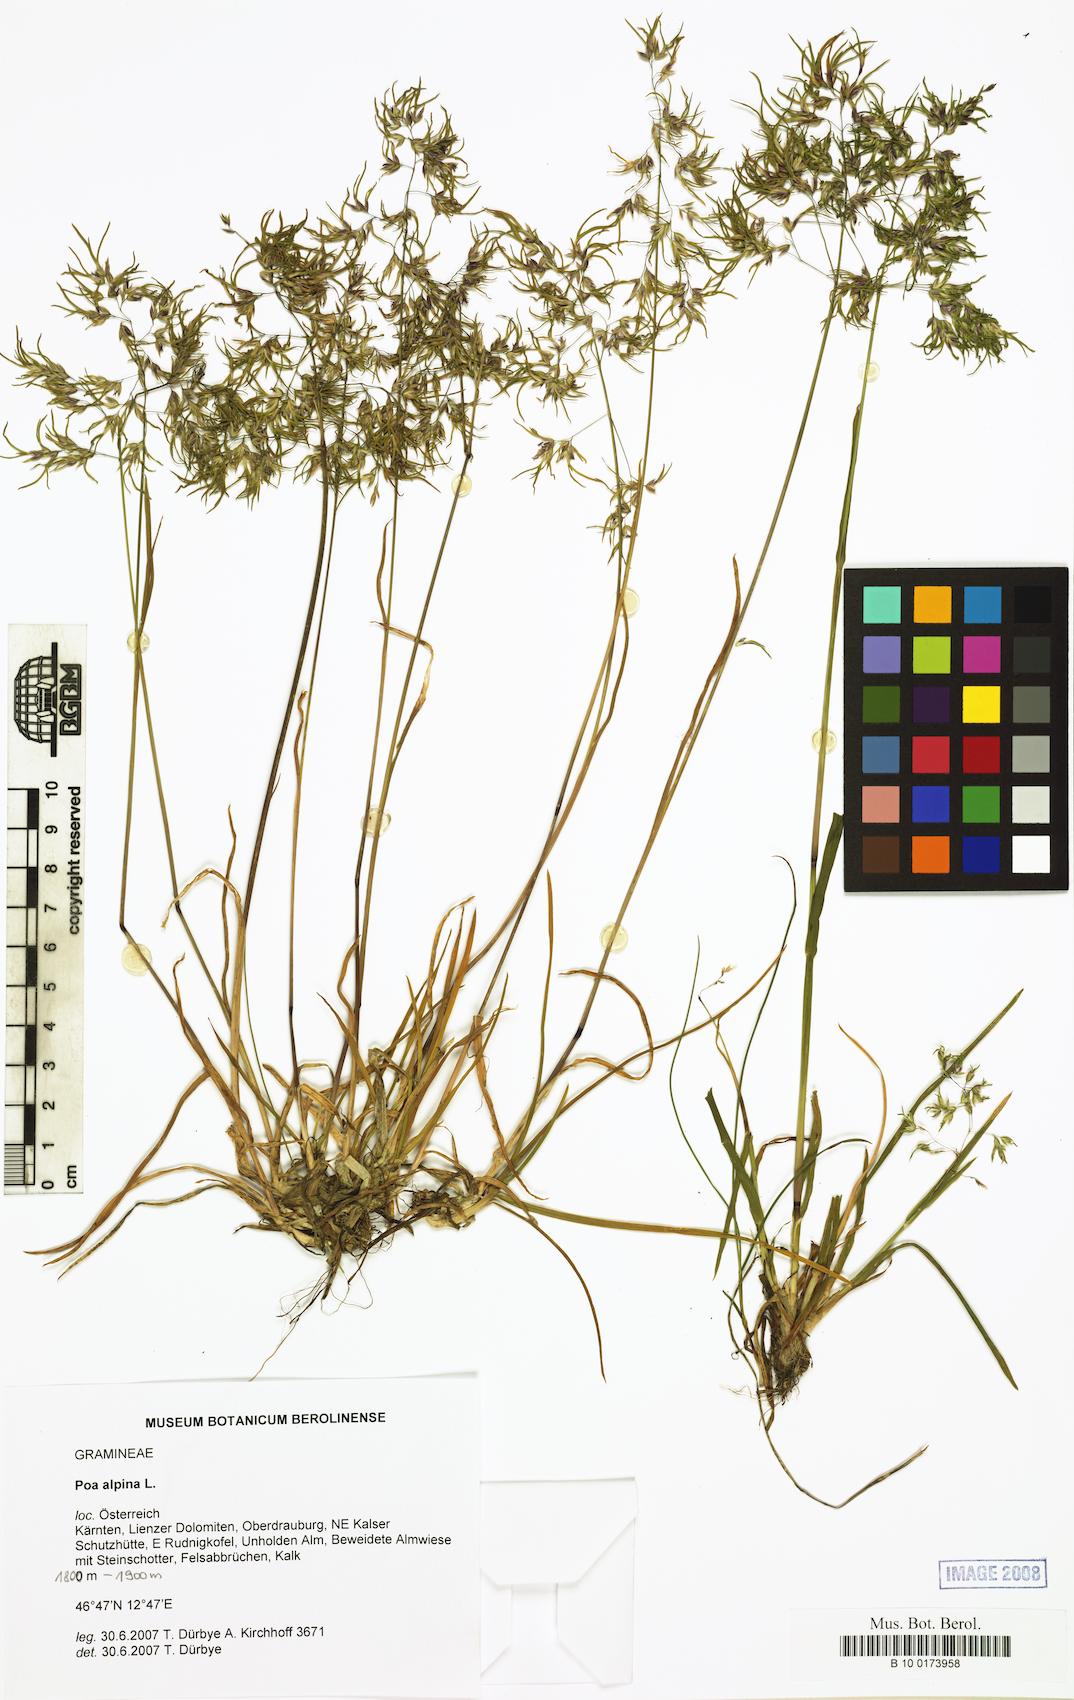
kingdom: Plantae
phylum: Tracheophyta
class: Liliopsida
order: Poales
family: Poaceae
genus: Poa
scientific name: Poa alpina
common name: Alpine bluegrass
